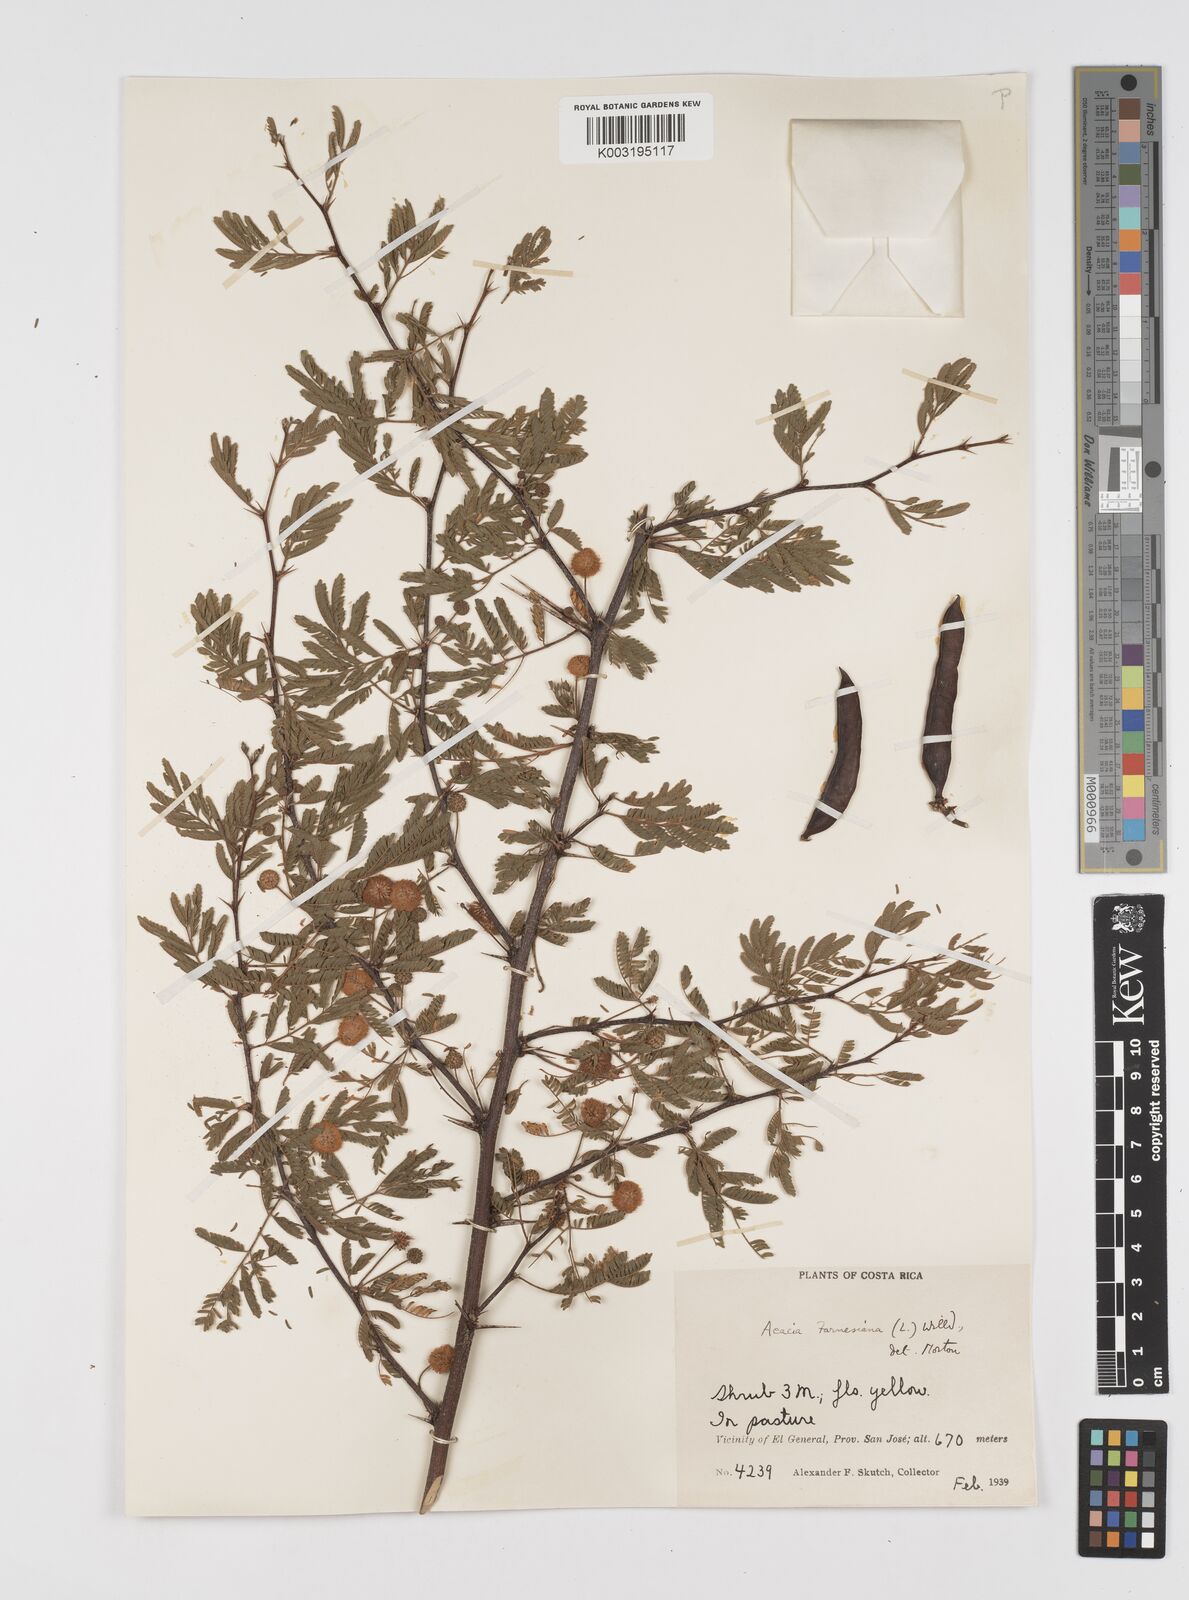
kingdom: Plantae
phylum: Tracheophyta
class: Magnoliopsida
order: Fabales
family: Fabaceae
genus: Vachellia
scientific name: Vachellia farnesiana
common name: Sweet acacia
